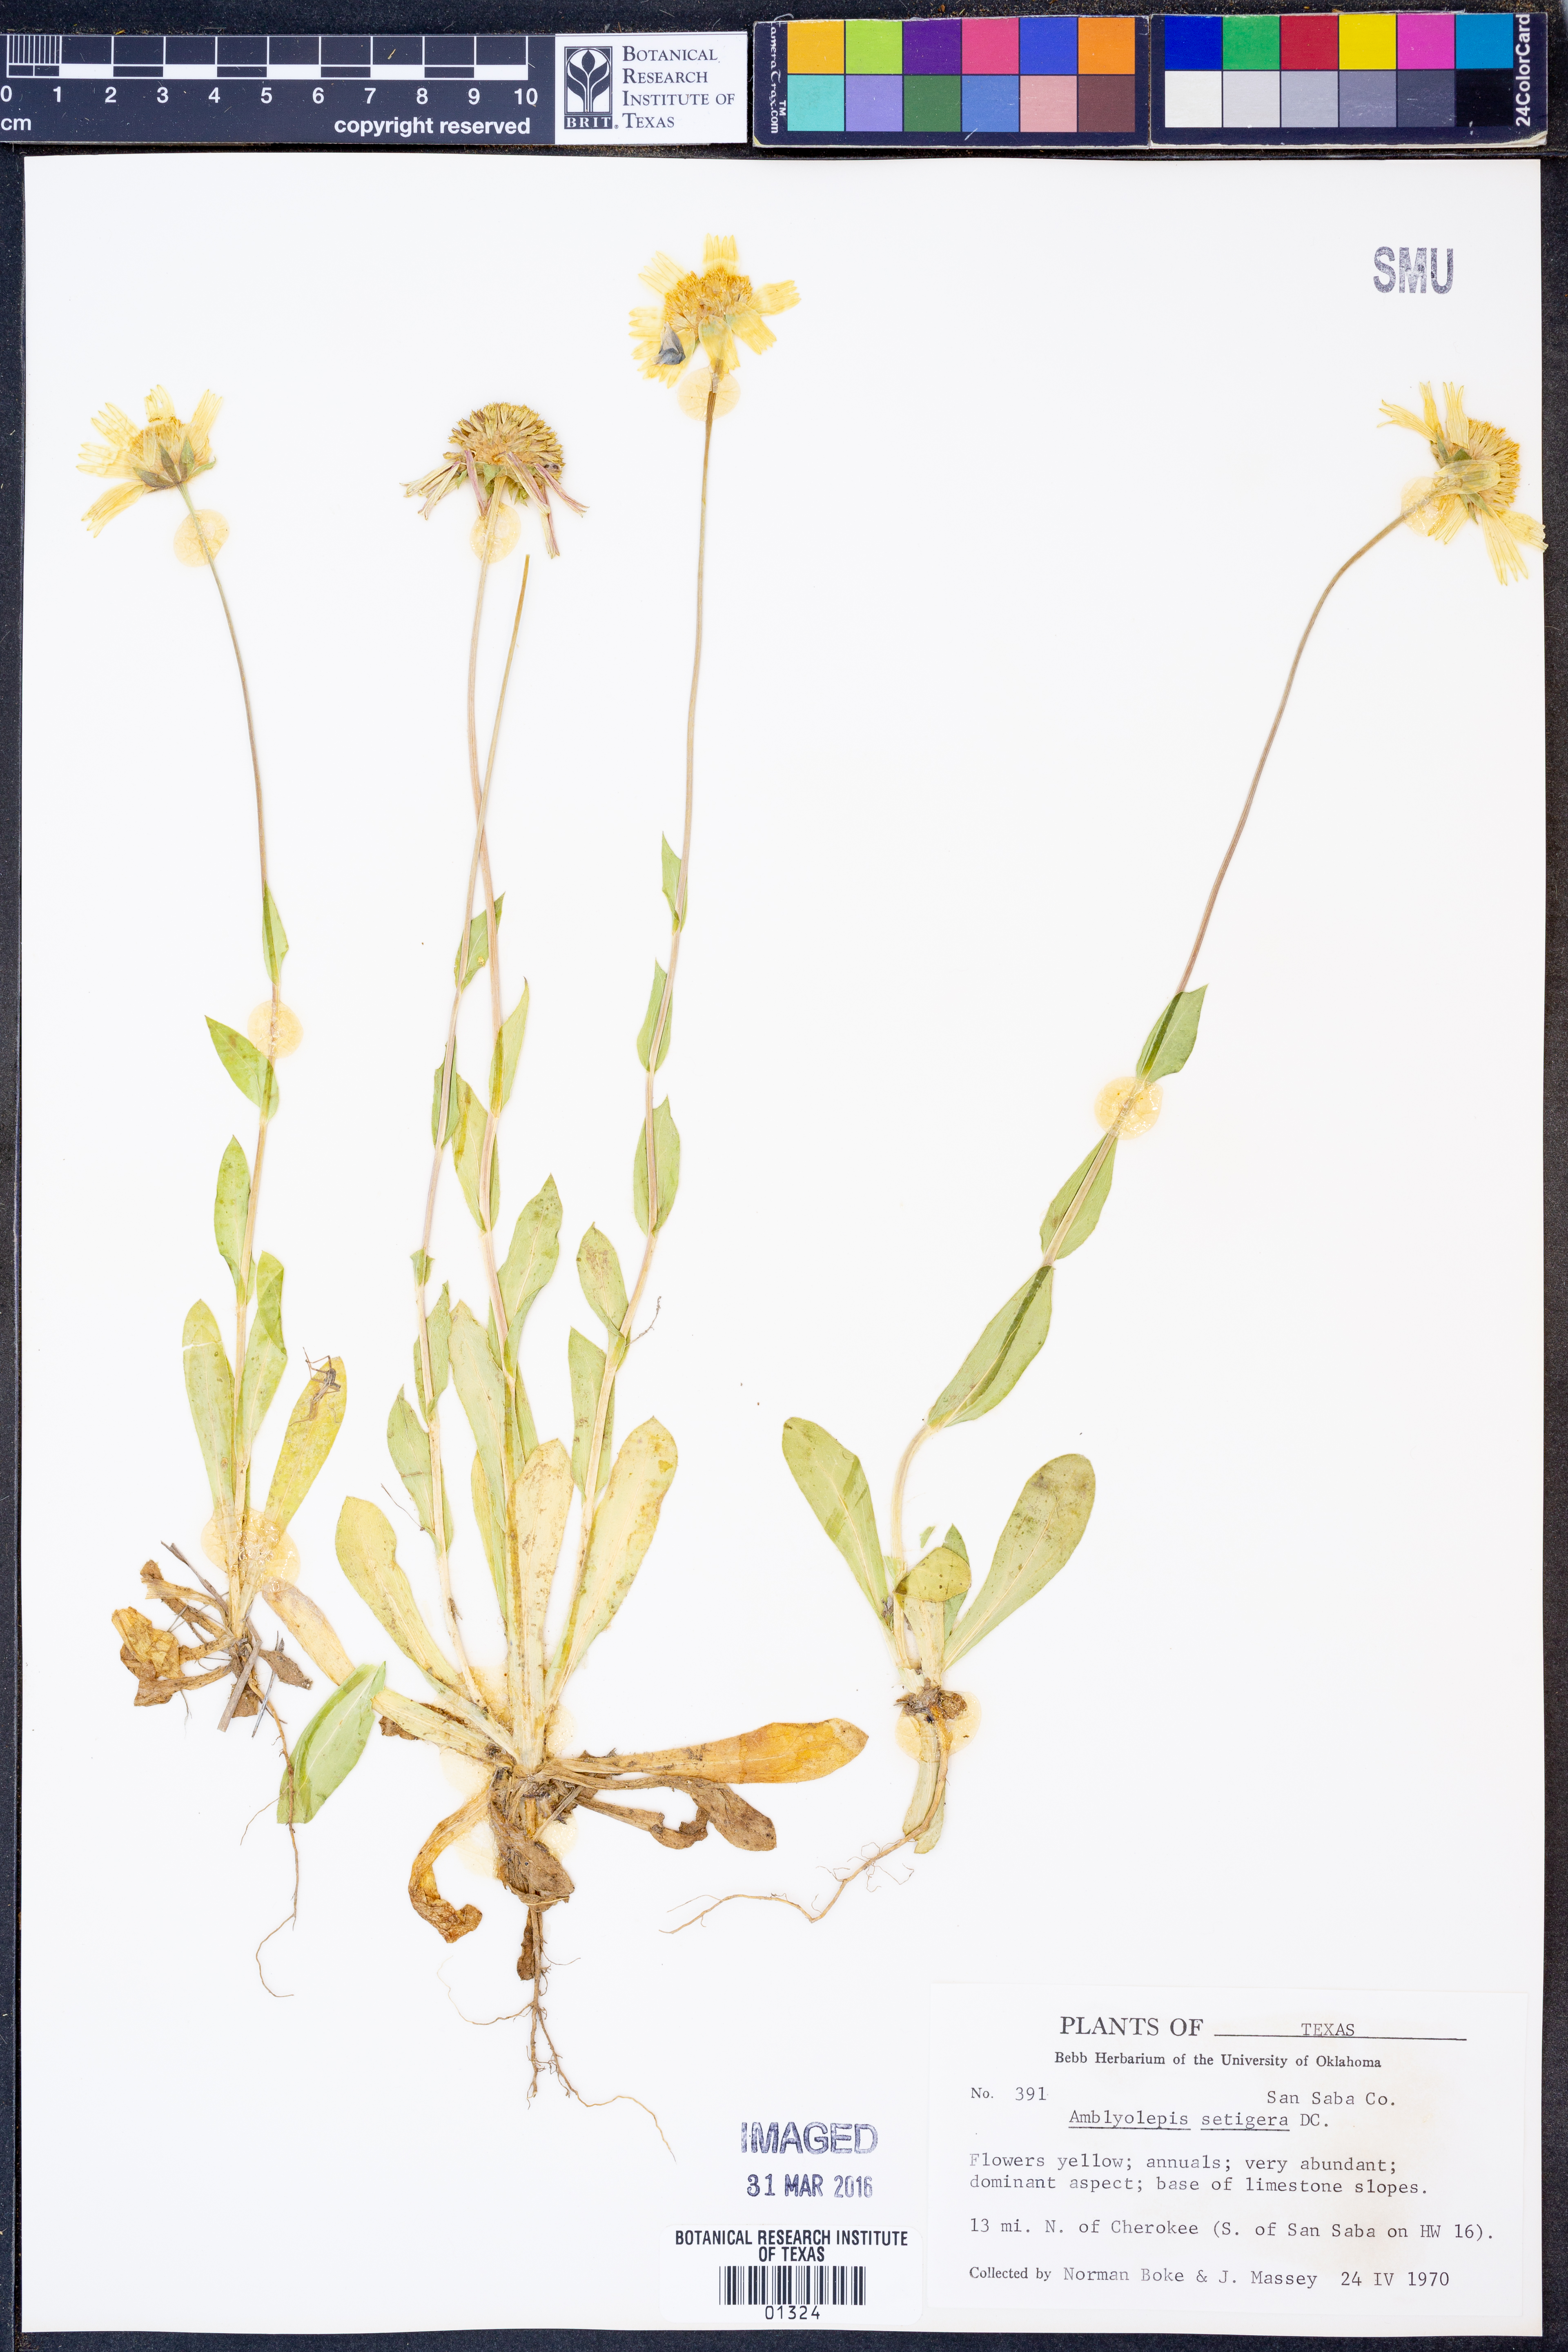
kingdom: Plantae
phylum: Tracheophyta
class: Magnoliopsida
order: Asterales
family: Asteraceae
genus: Amblyolepis
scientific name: Amblyolepis setigera
